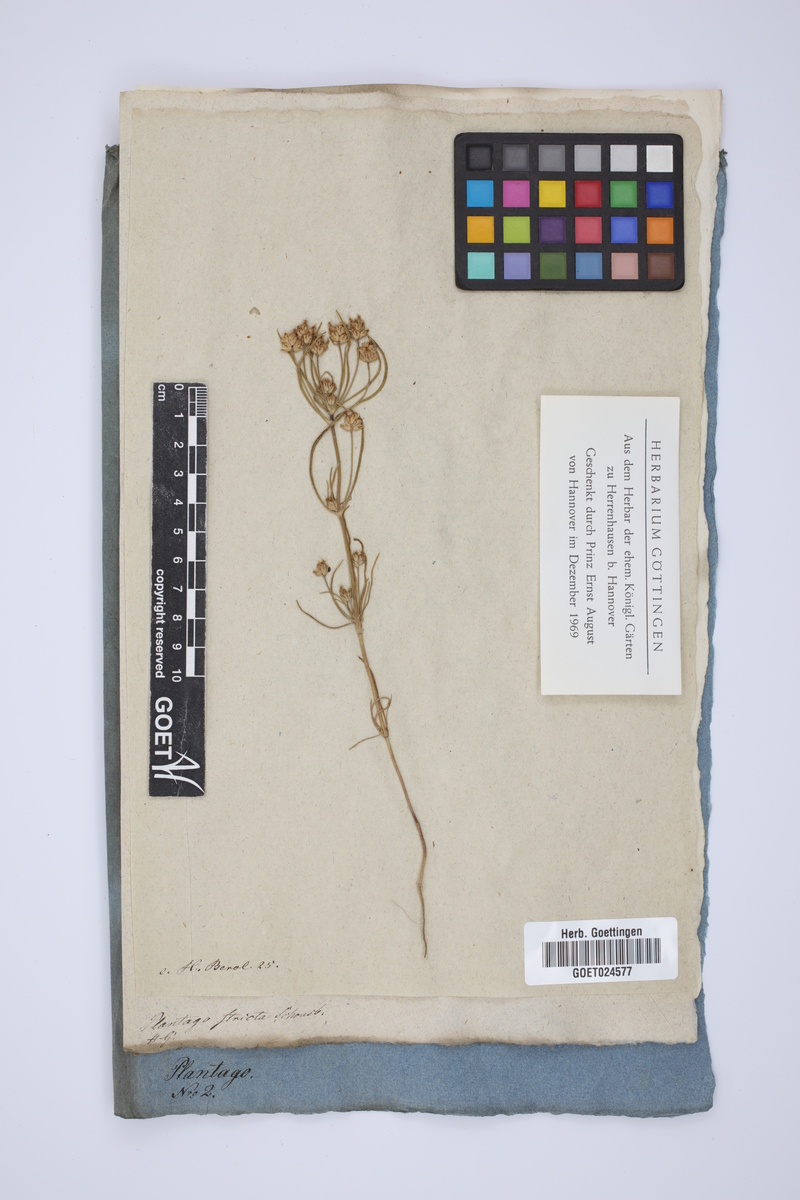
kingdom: Plantae
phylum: Tracheophyta
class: Magnoliopsida
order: Lamiales
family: Plantaginaceae
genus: Plantago
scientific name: Plantago afra
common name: Glandular plantain
